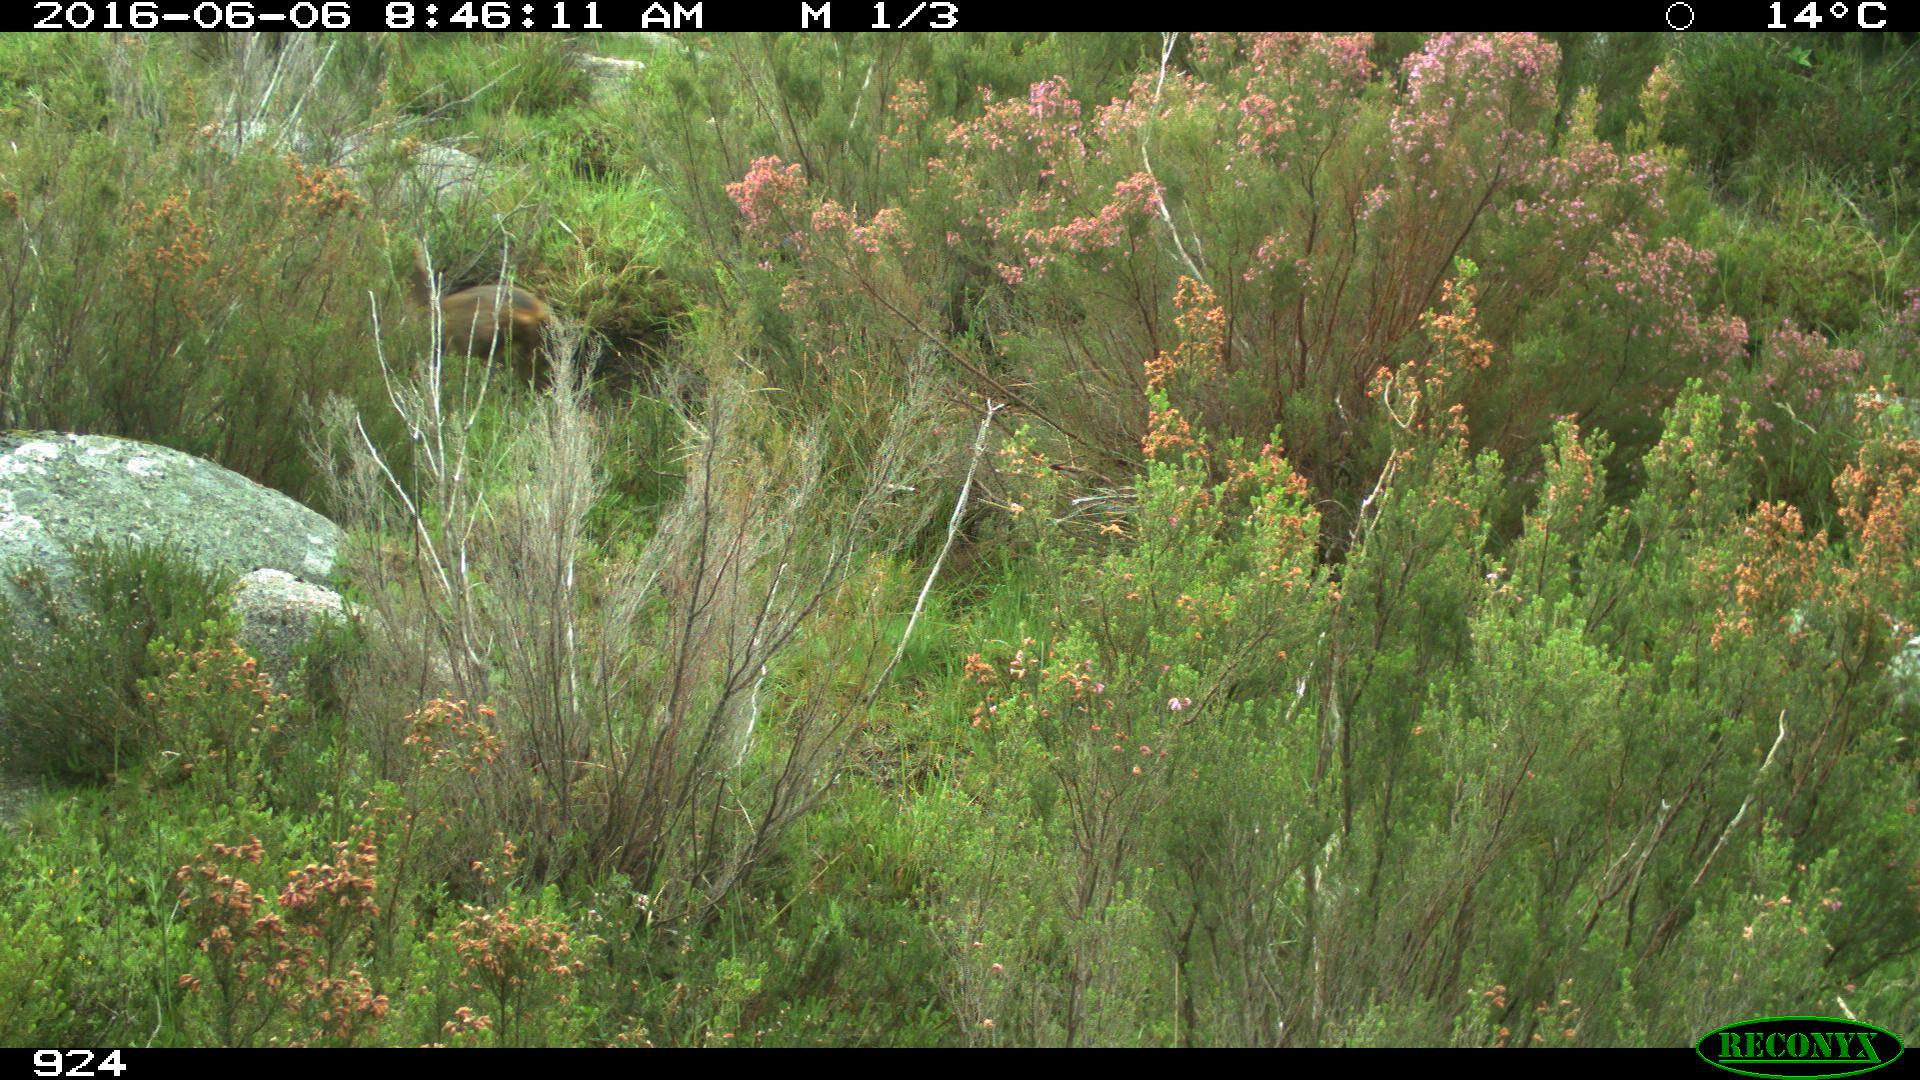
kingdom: Animalia
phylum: Chordata
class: Mammalia
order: Artiodactyla
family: Cervidae
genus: Capreolus
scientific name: Capreolus capreolus
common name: Western roe deer
